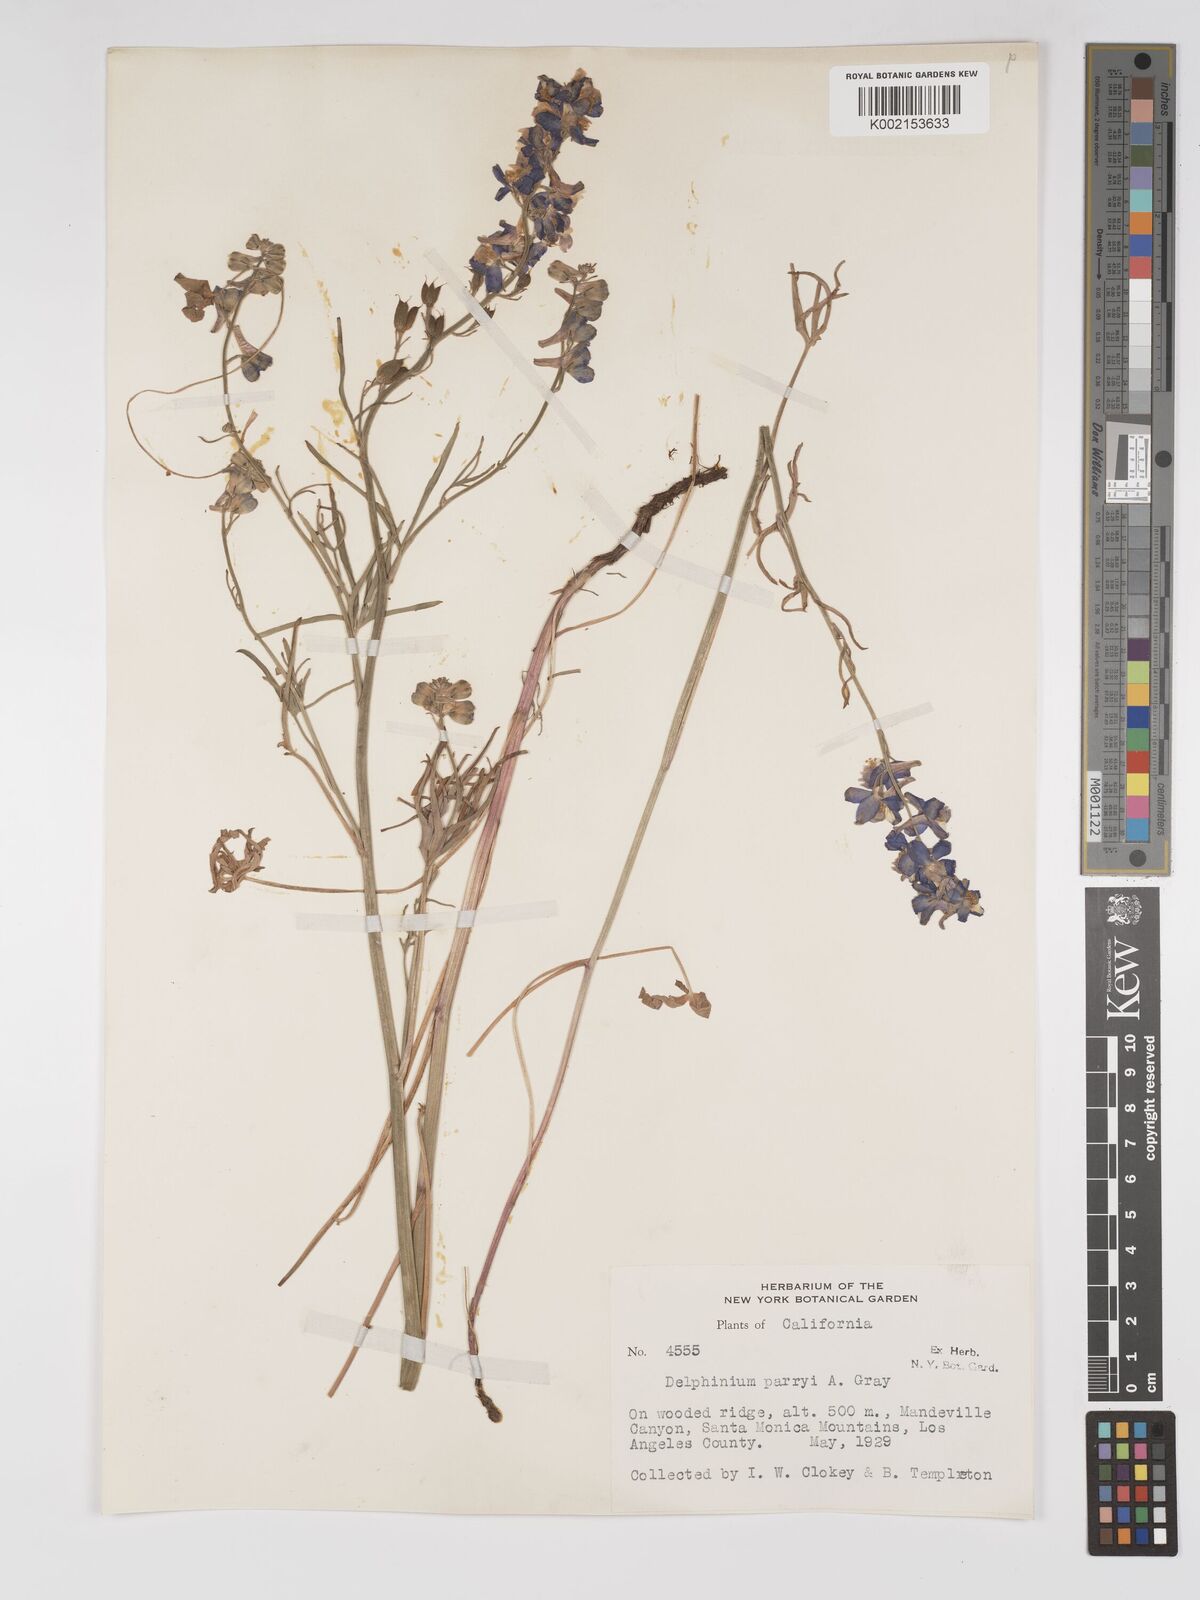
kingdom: Plantae
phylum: Tracheophyta
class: Magnoliopsida
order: Ranunculales
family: Ranunculaceae
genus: Delphinium
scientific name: Delphinium parryi
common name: Parry's larkspur
